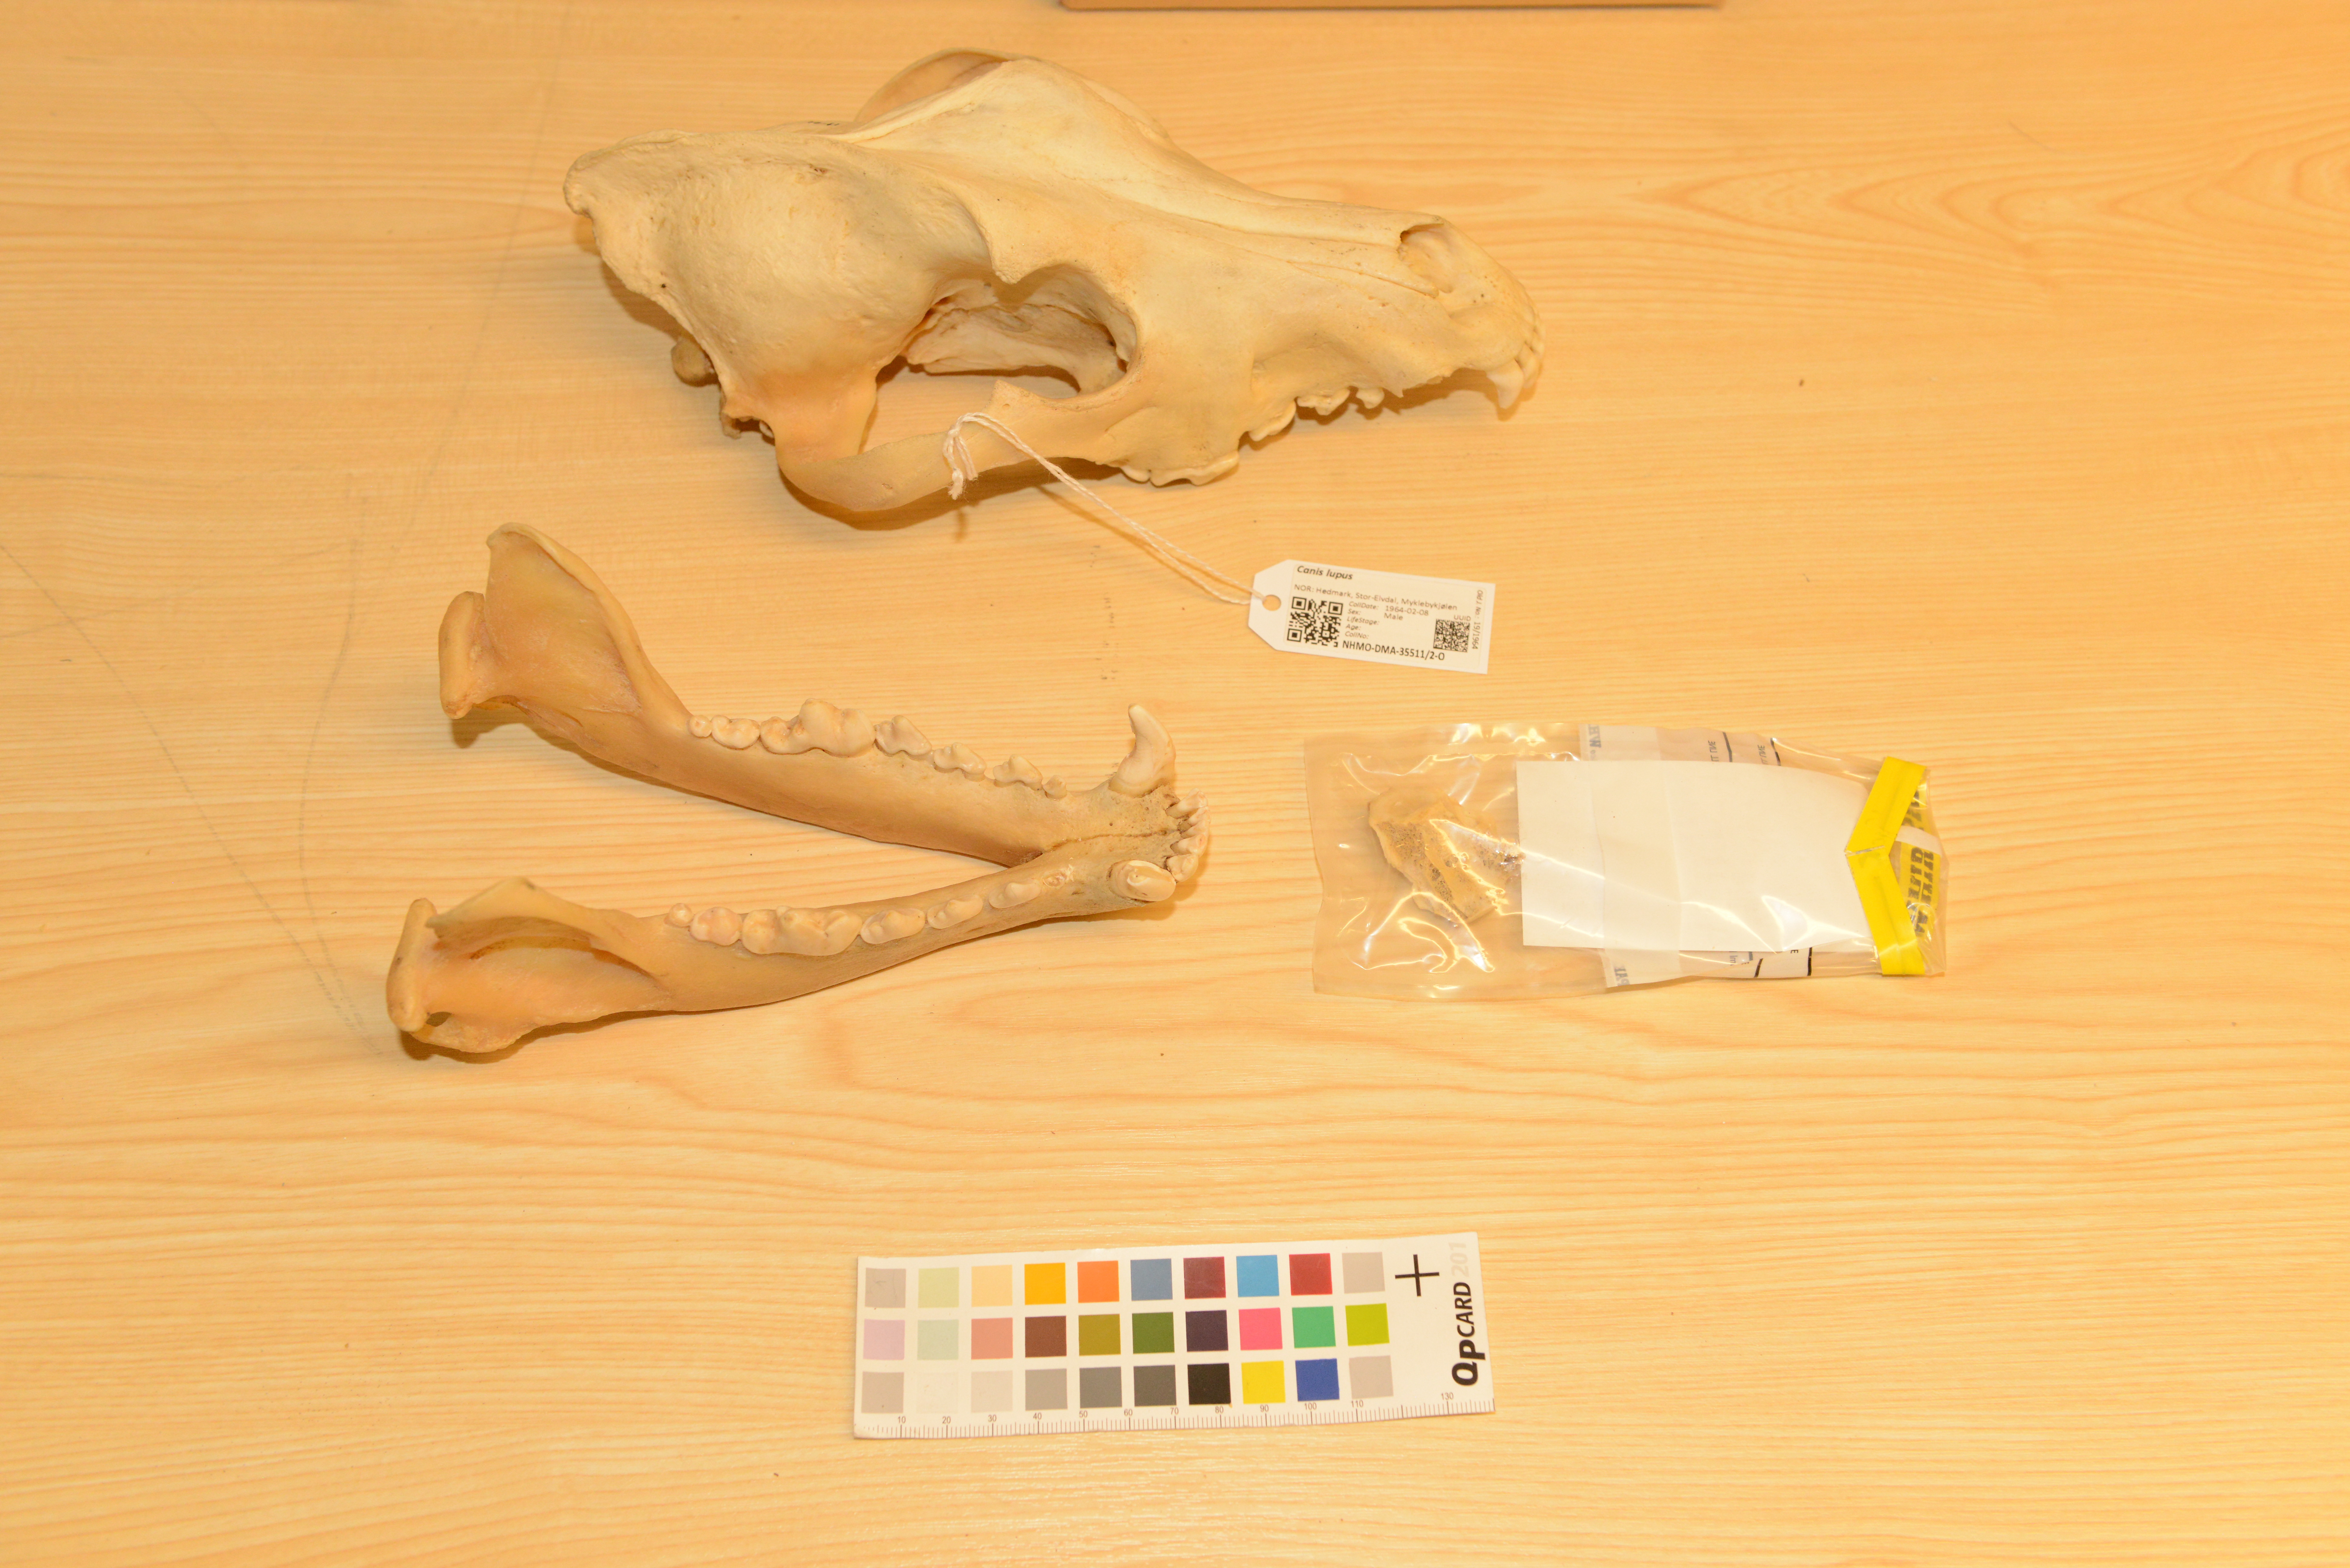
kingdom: Animalia
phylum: Chordata
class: Mammalia
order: Carnivora
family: Canidae
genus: Canis
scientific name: Canis lupus
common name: Gray wolf
